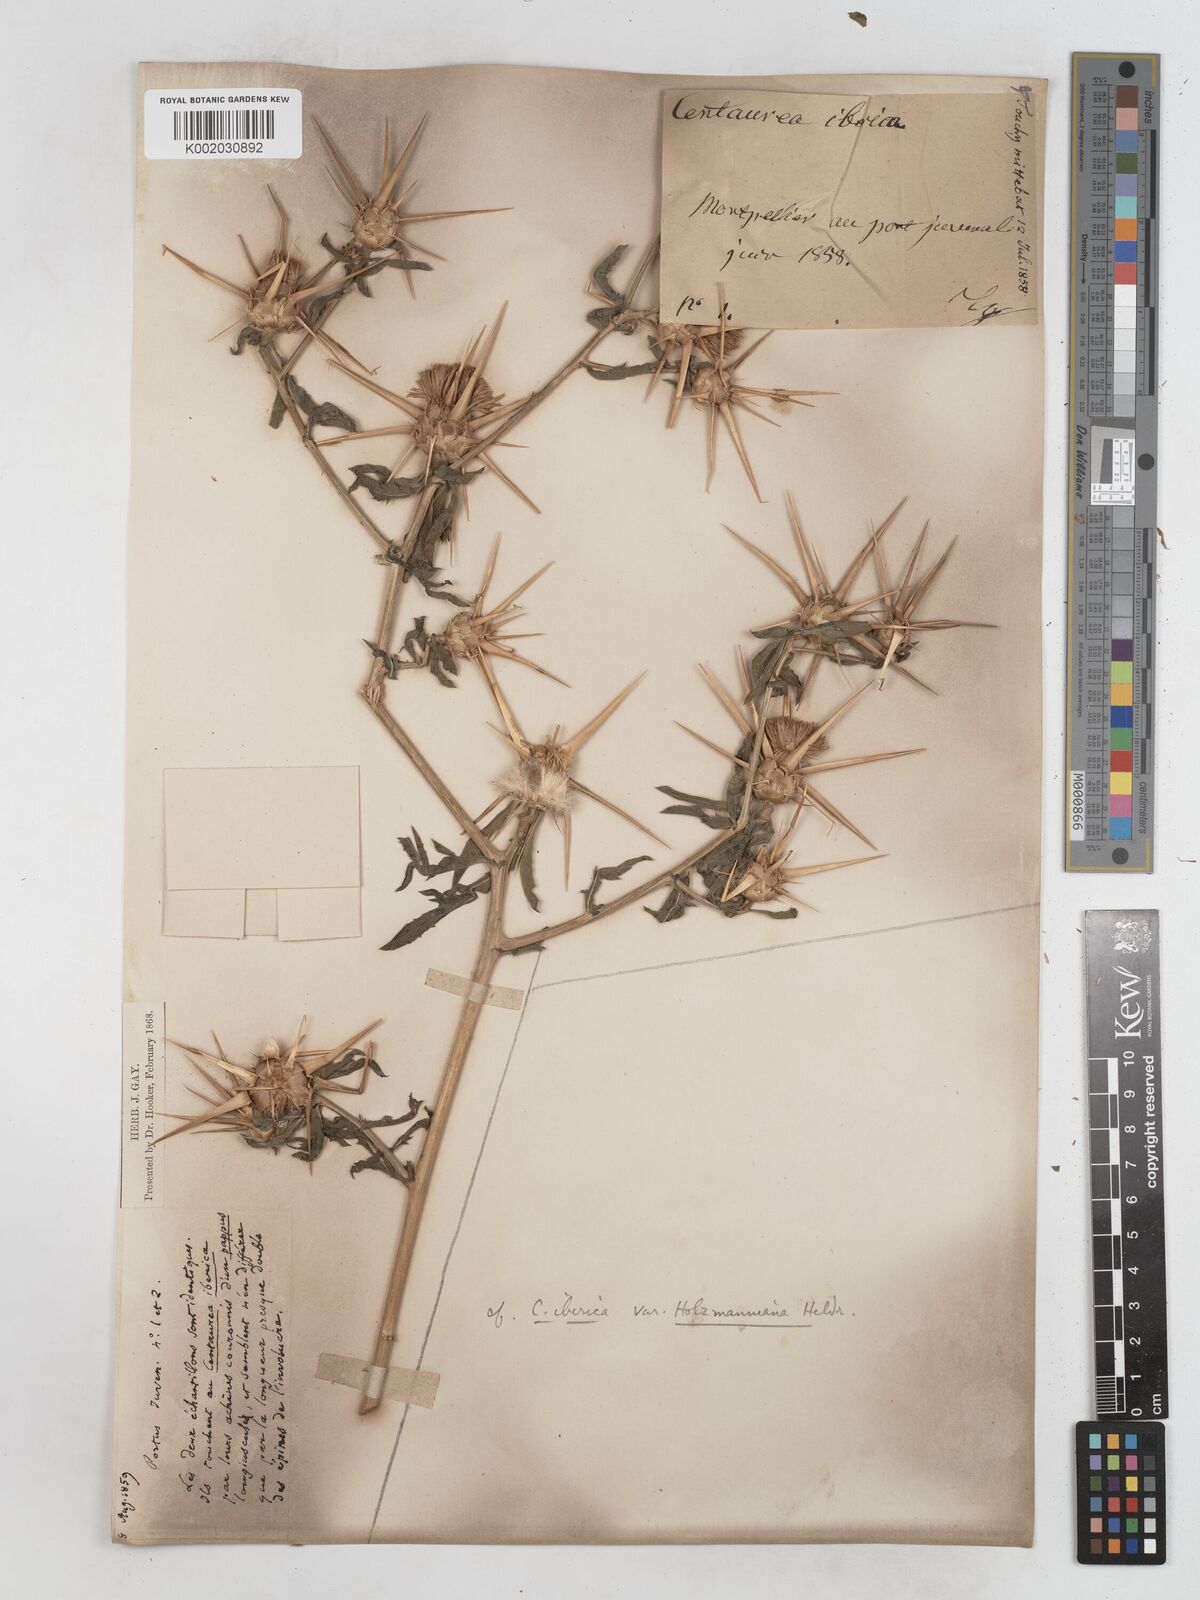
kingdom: Plantae
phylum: Tracheophyta
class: Magnoliopsida
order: Asterales
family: Asteraceae
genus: Centaurea
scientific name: Centaurea iberica
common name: Iberian knapweed
